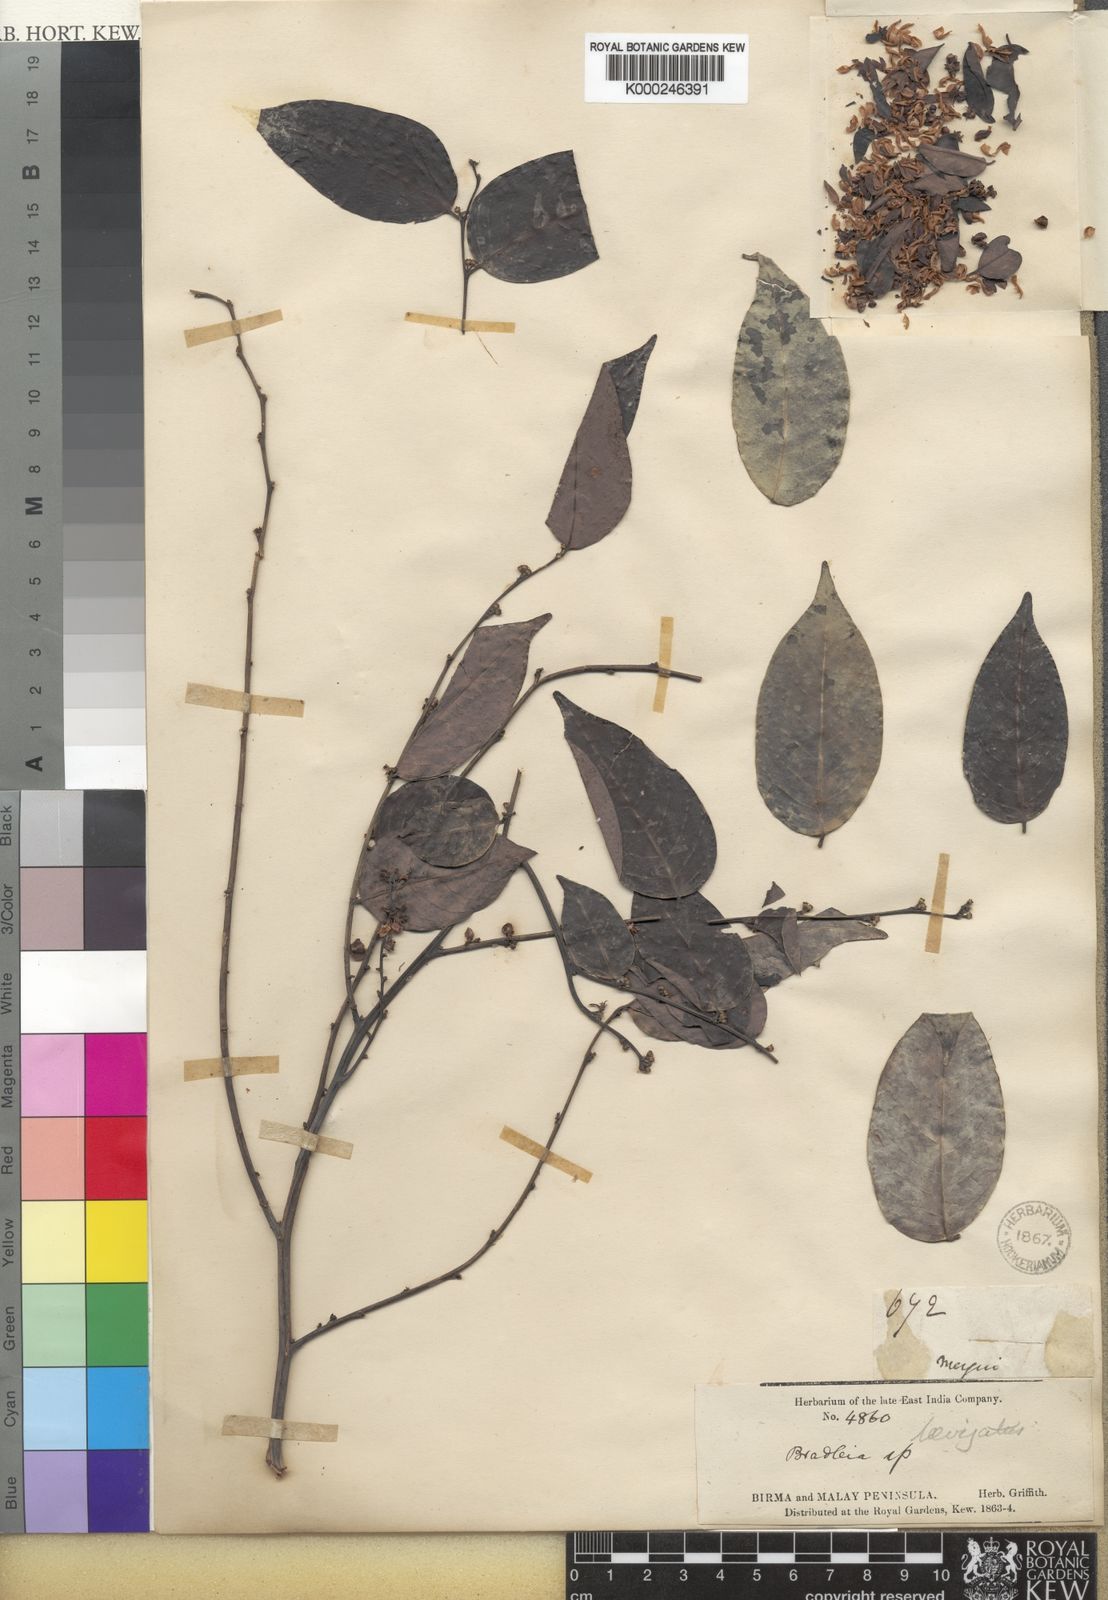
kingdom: Plantae
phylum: Tracheophyta
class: Magnoliopsida
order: Malpighiales
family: Phyllanthaceae
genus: Glochidion
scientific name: Glochidion lutescens
